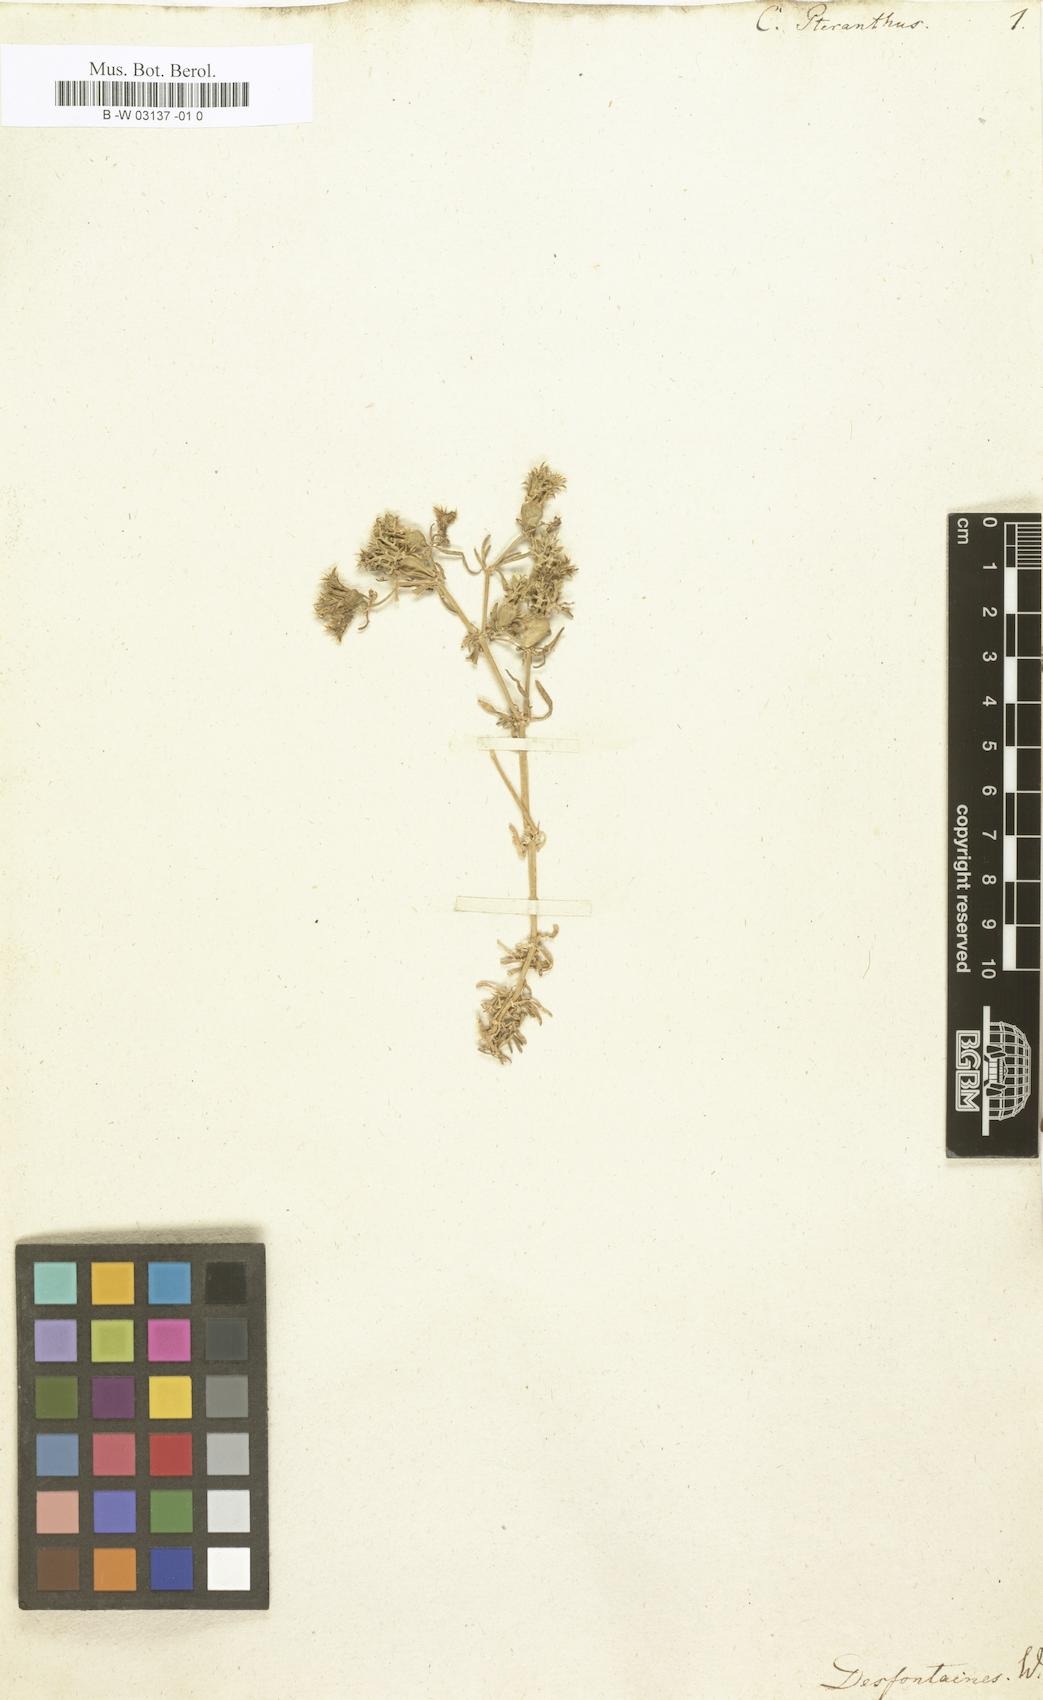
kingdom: Plantae
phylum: Tracheophyta
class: Magnoliopsida
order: Caryophyllales
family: Caryophyllaceae
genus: Pteranthus
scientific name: Pteranthus dichotomus
